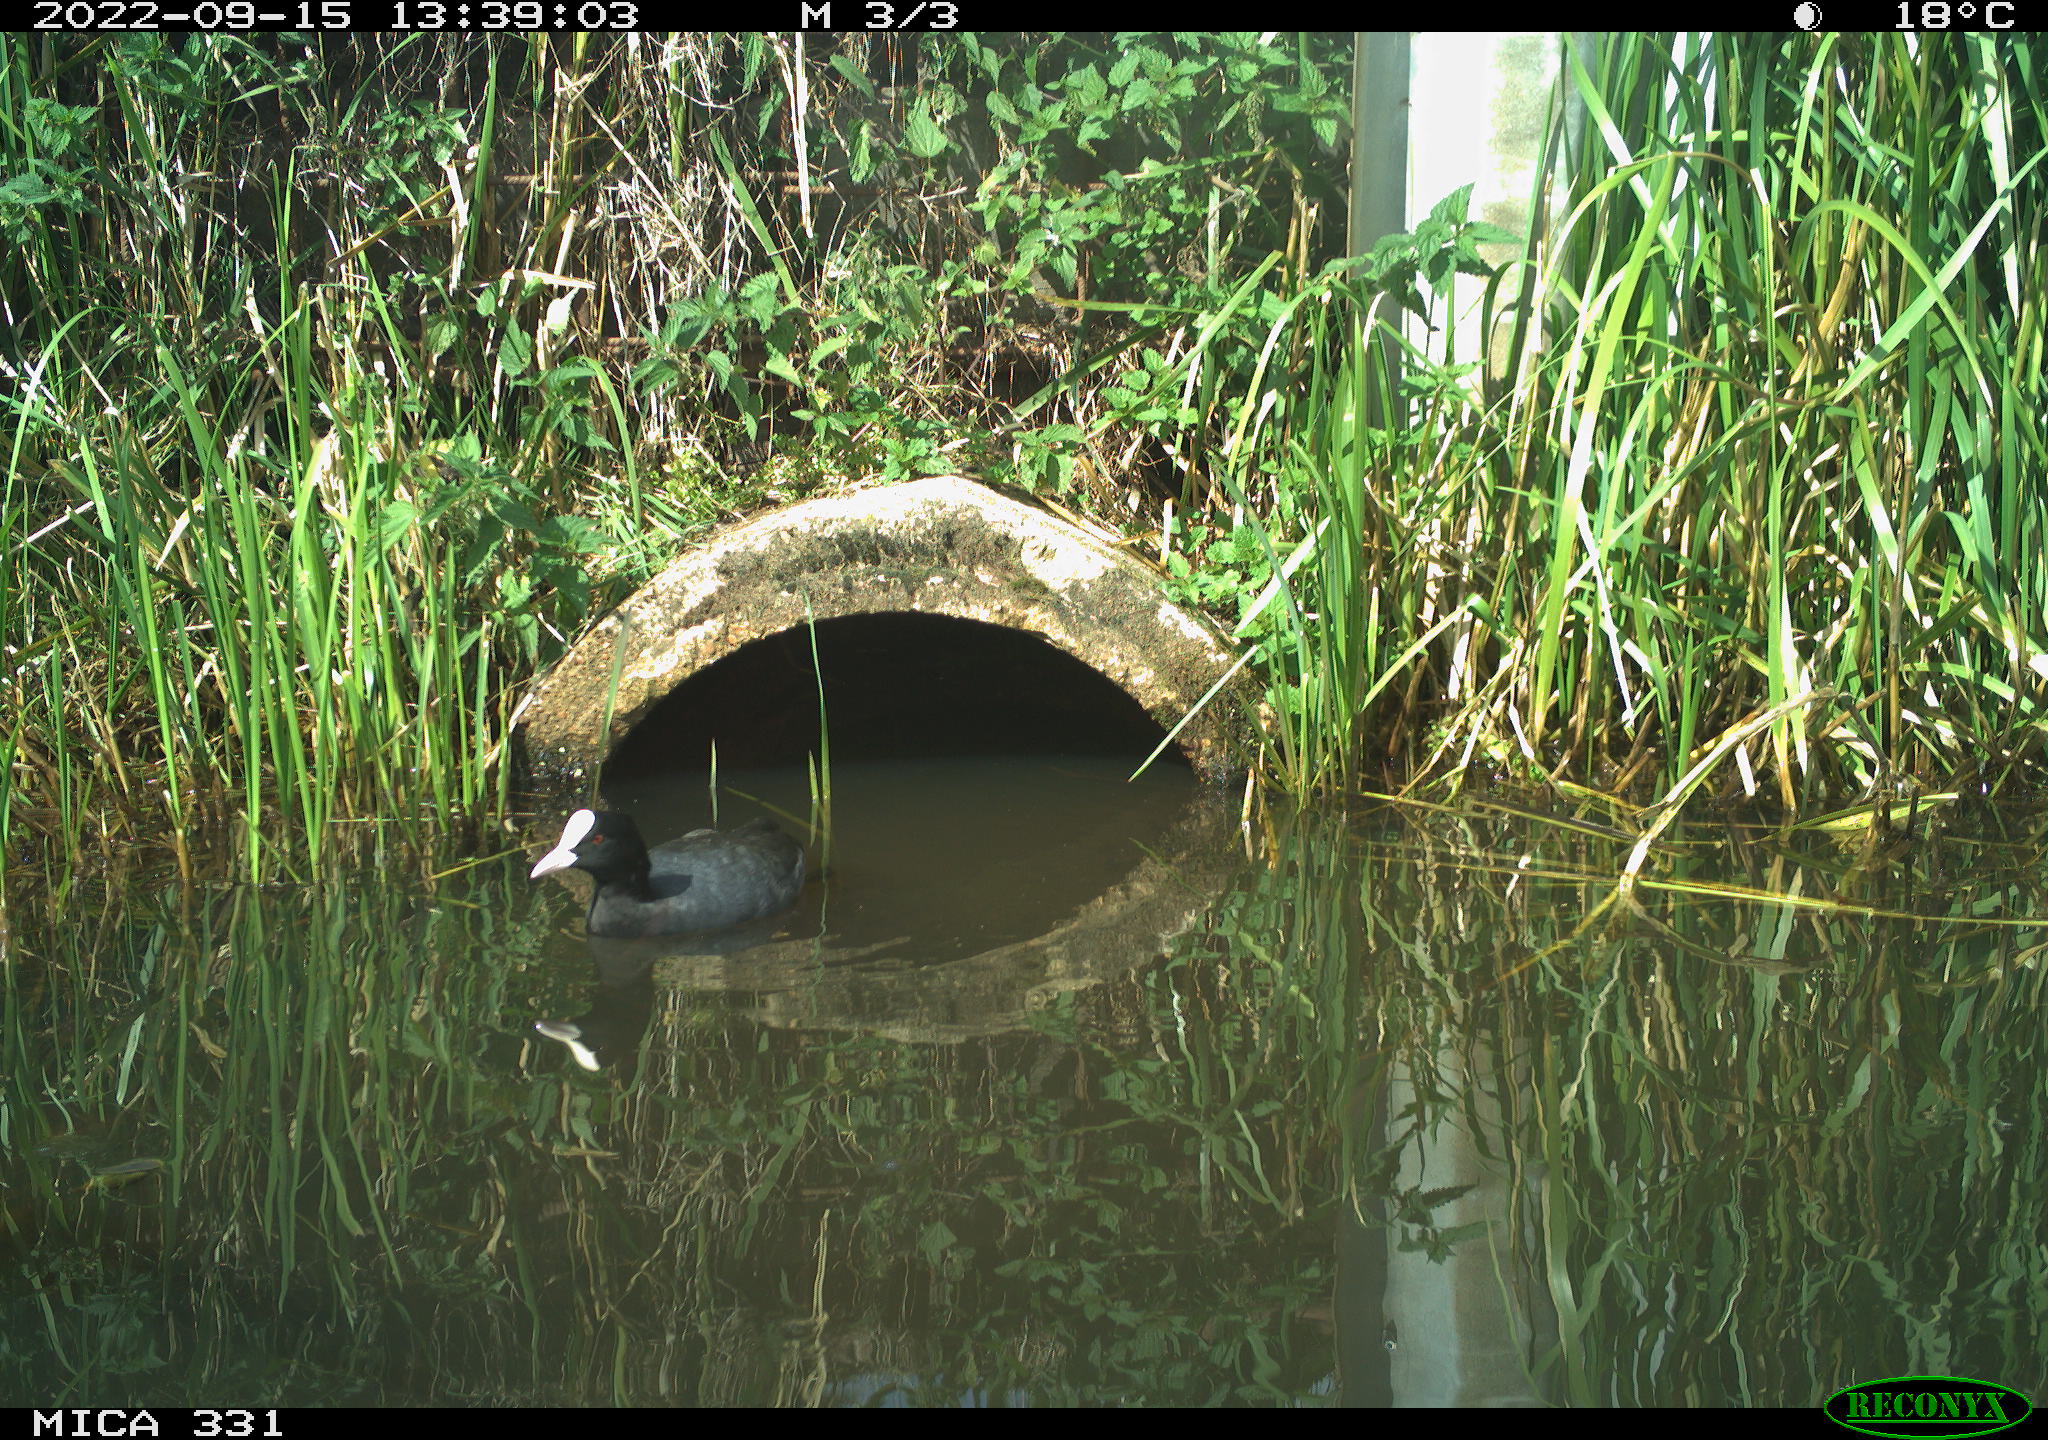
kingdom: Animalia
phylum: Chordata
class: Aves
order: Gruiformes
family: Rallidae
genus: Fulica
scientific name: Fulica atra
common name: Eurasian coot
